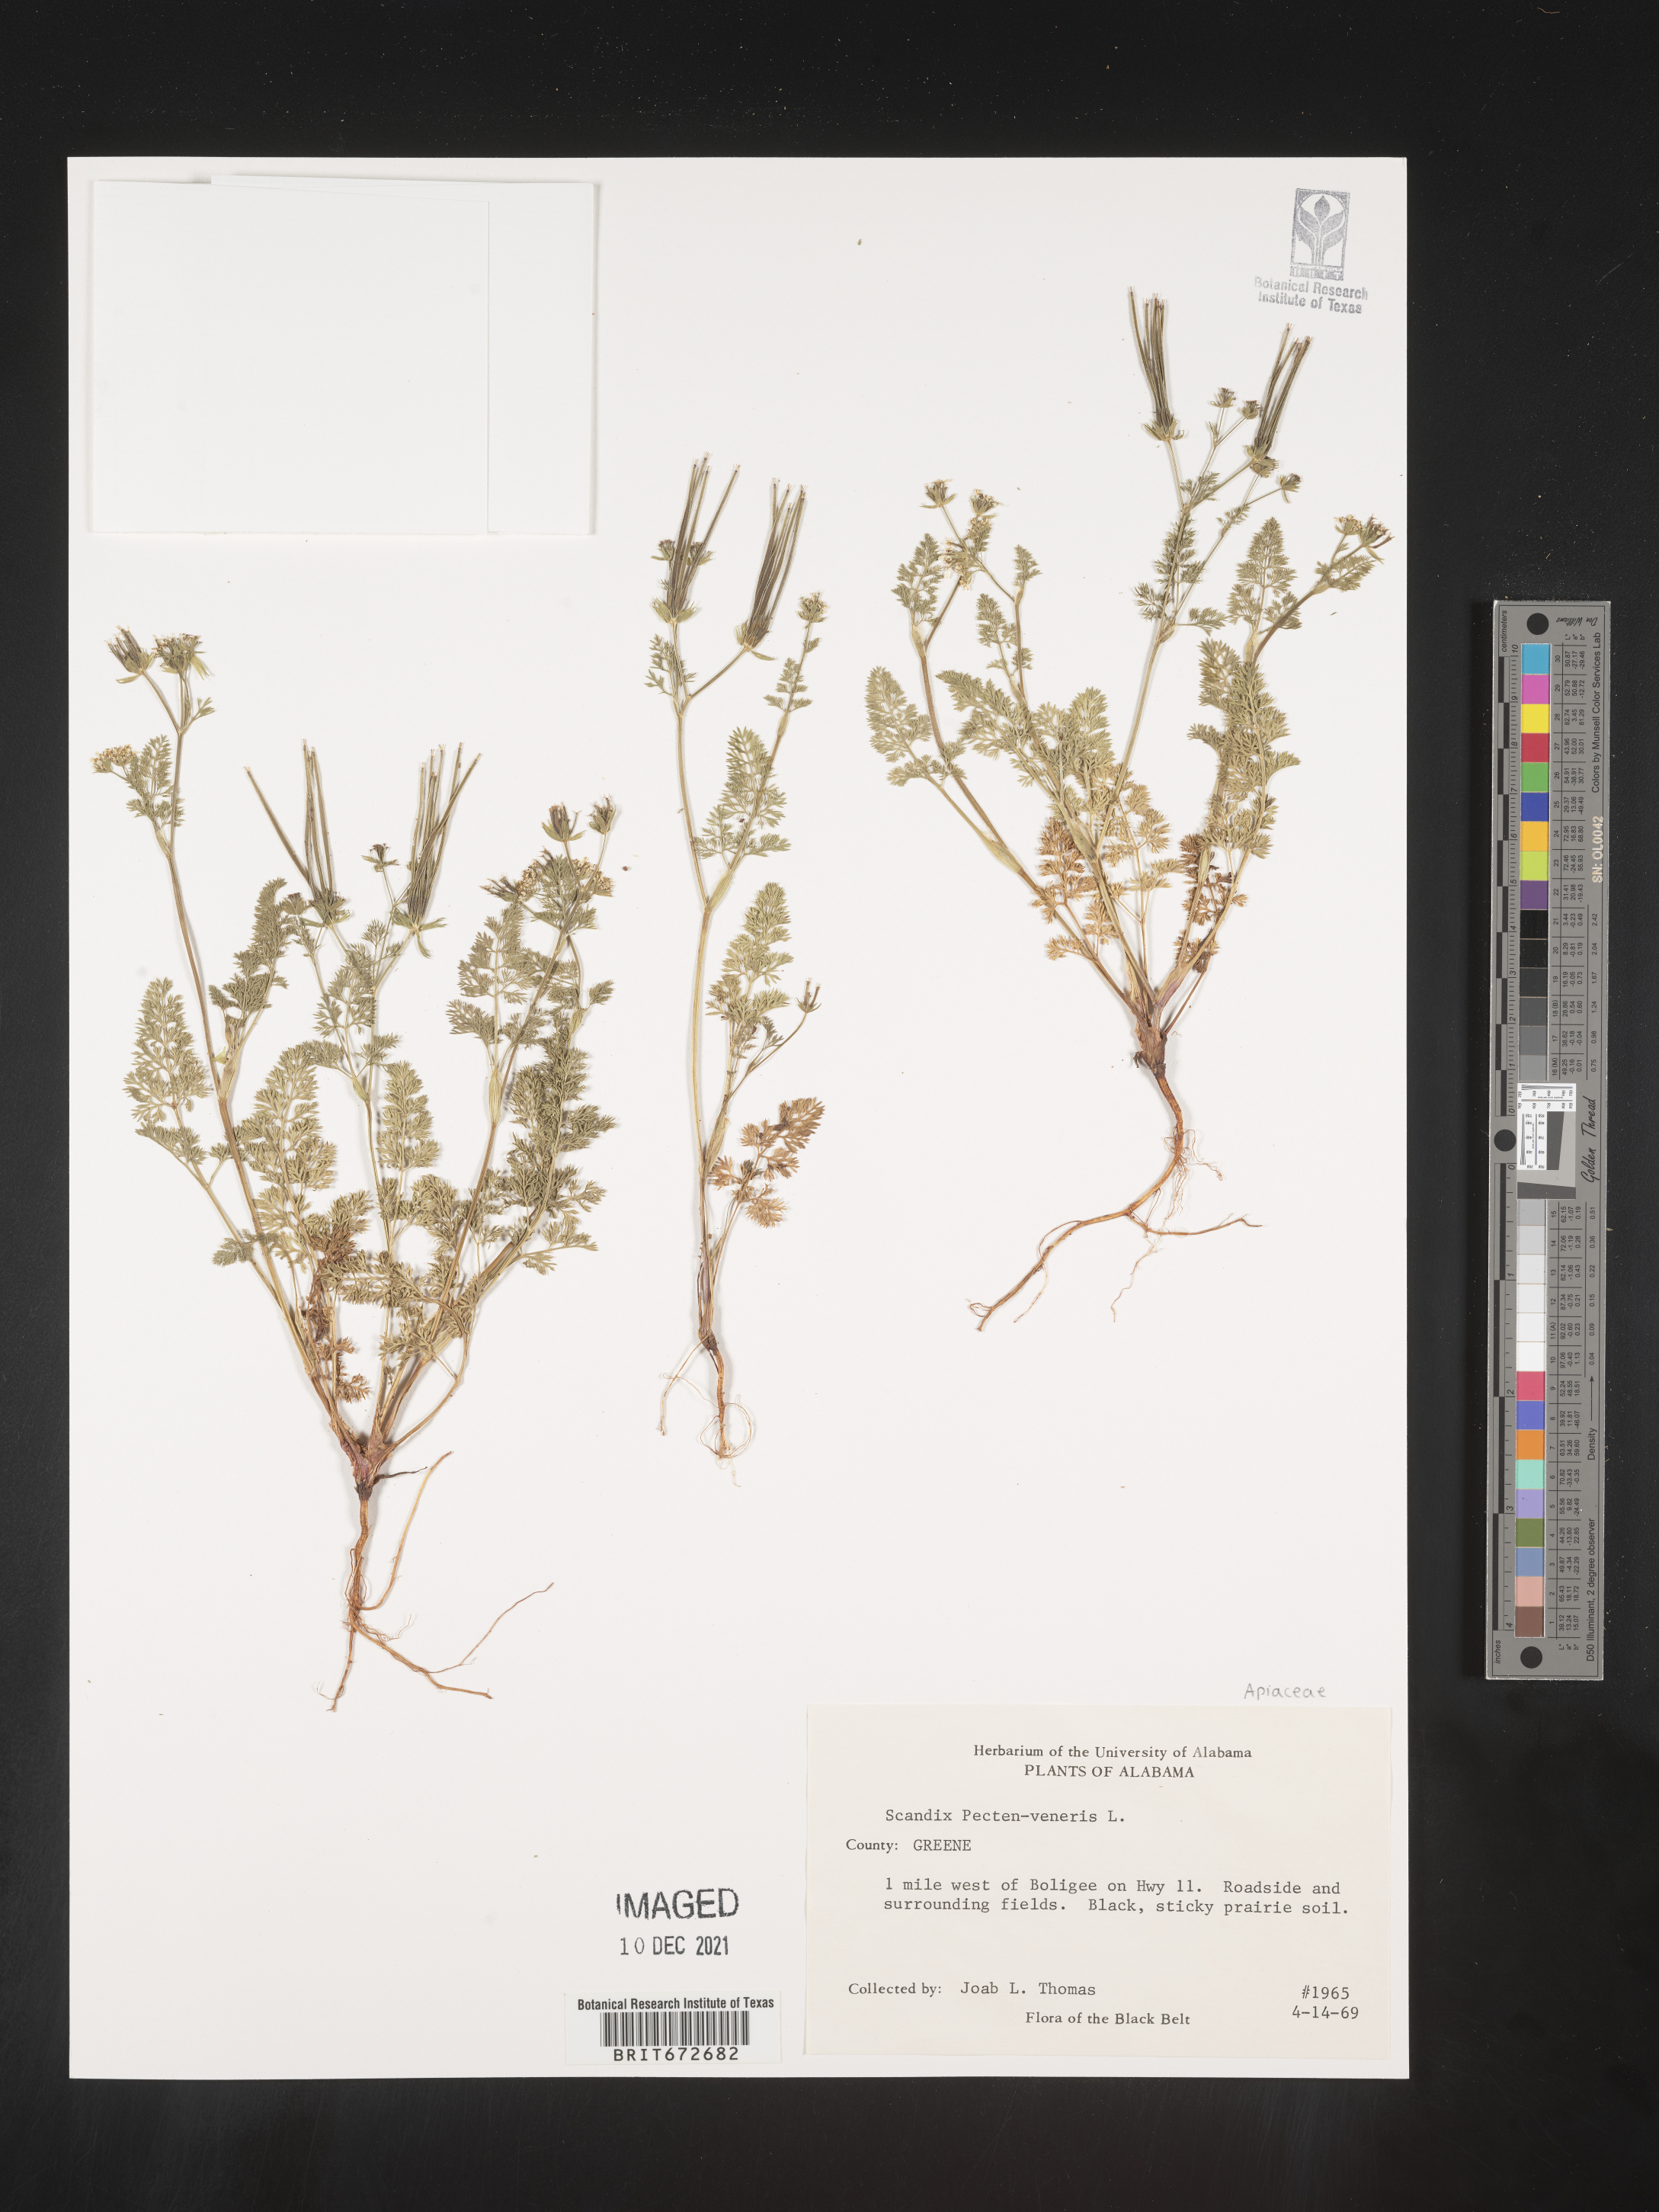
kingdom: Plantae
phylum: Tracheophyta
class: Magnoliopsida
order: Apiales
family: Apiaceae
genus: Scandix
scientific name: Scandix
